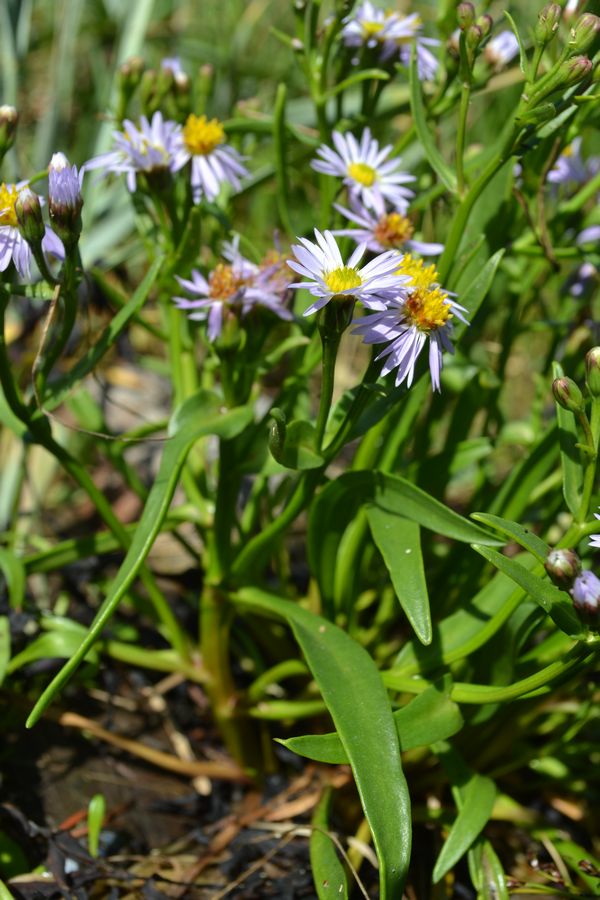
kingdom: Plantae
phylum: Tracheophyta
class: Magnoliopsida
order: Asterales
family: Asteraceae
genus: Tripolium
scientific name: Tripolium pannonicum
